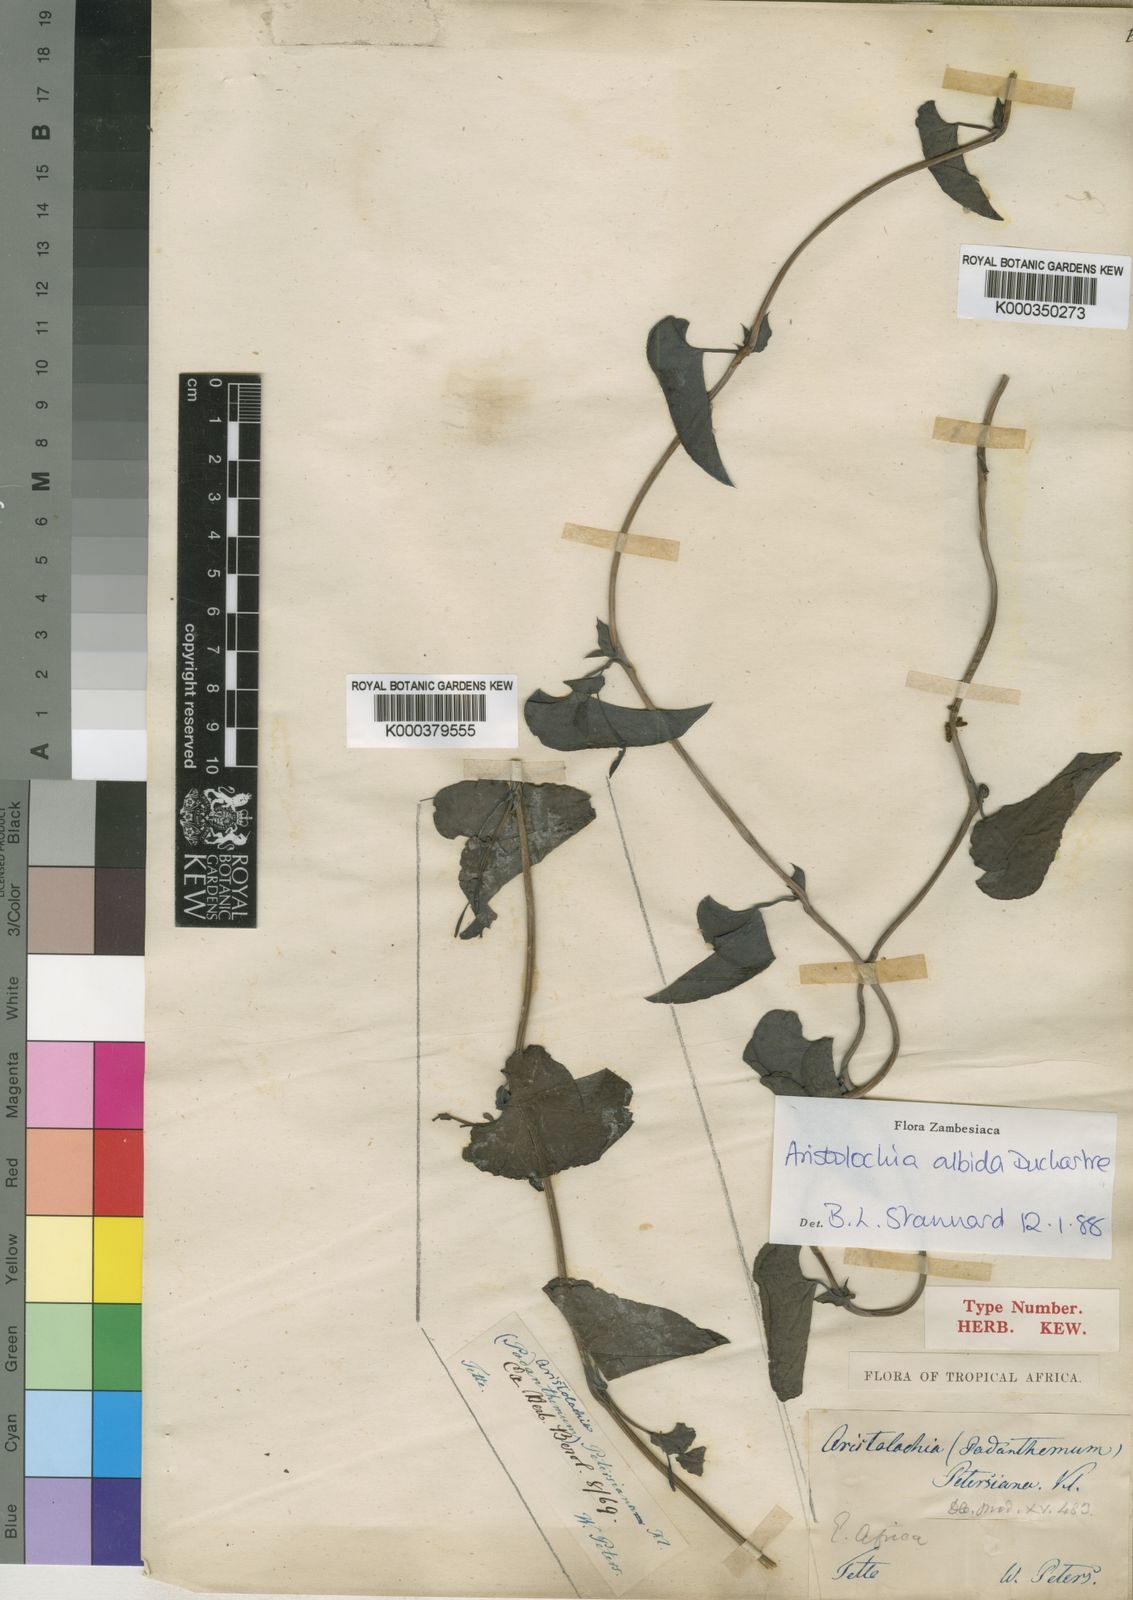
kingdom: Plantae
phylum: Tracheophyta
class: Magnoliopsida
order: Piperales
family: Aristolochiaceae
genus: Aristolochia
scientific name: Aristolochia albida
